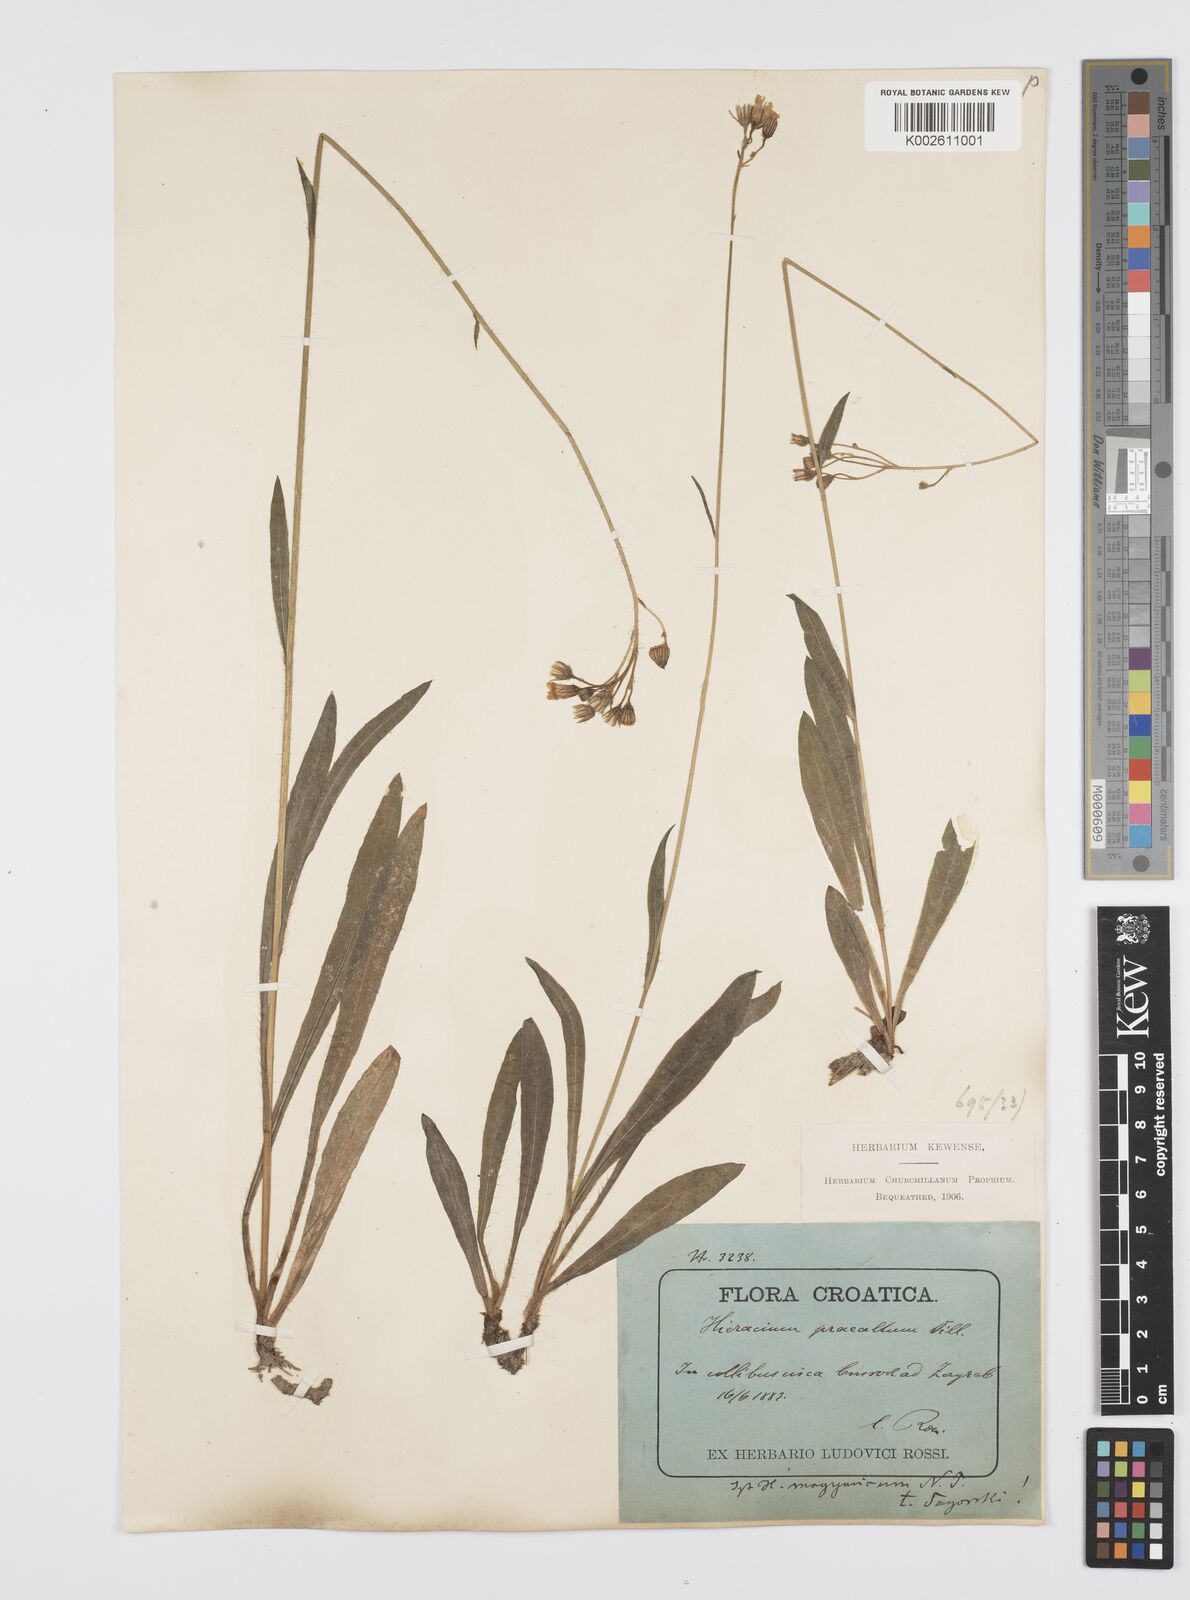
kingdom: Plantae
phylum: Tracheophyta
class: Magnoliopsida
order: Asterales
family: Asteraceae
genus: Pilosella
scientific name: Pilosella piloselloides
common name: Glaucous king-devil
